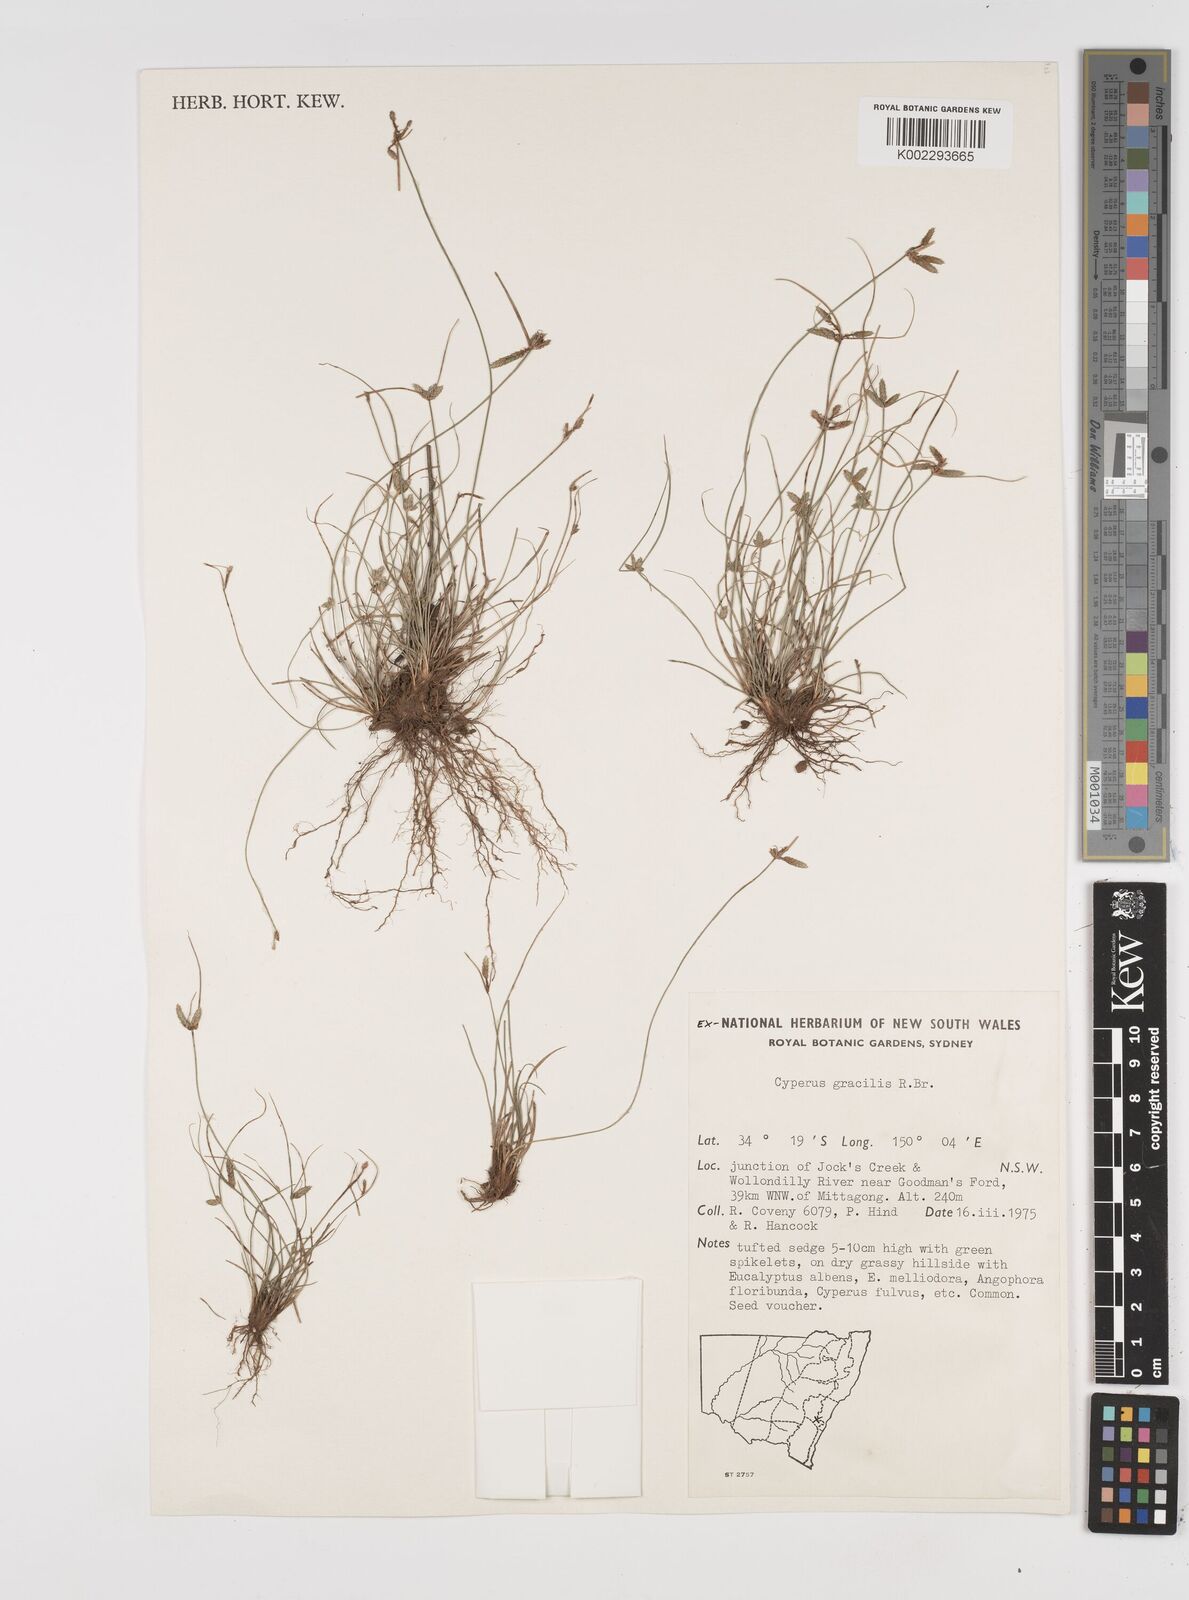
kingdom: Plantae
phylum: Tracheophyta
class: Liliopsida
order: Poales
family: Cyperaceae
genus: Cyperus
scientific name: Cyperus gracilis
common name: Slimjim flatsedge
